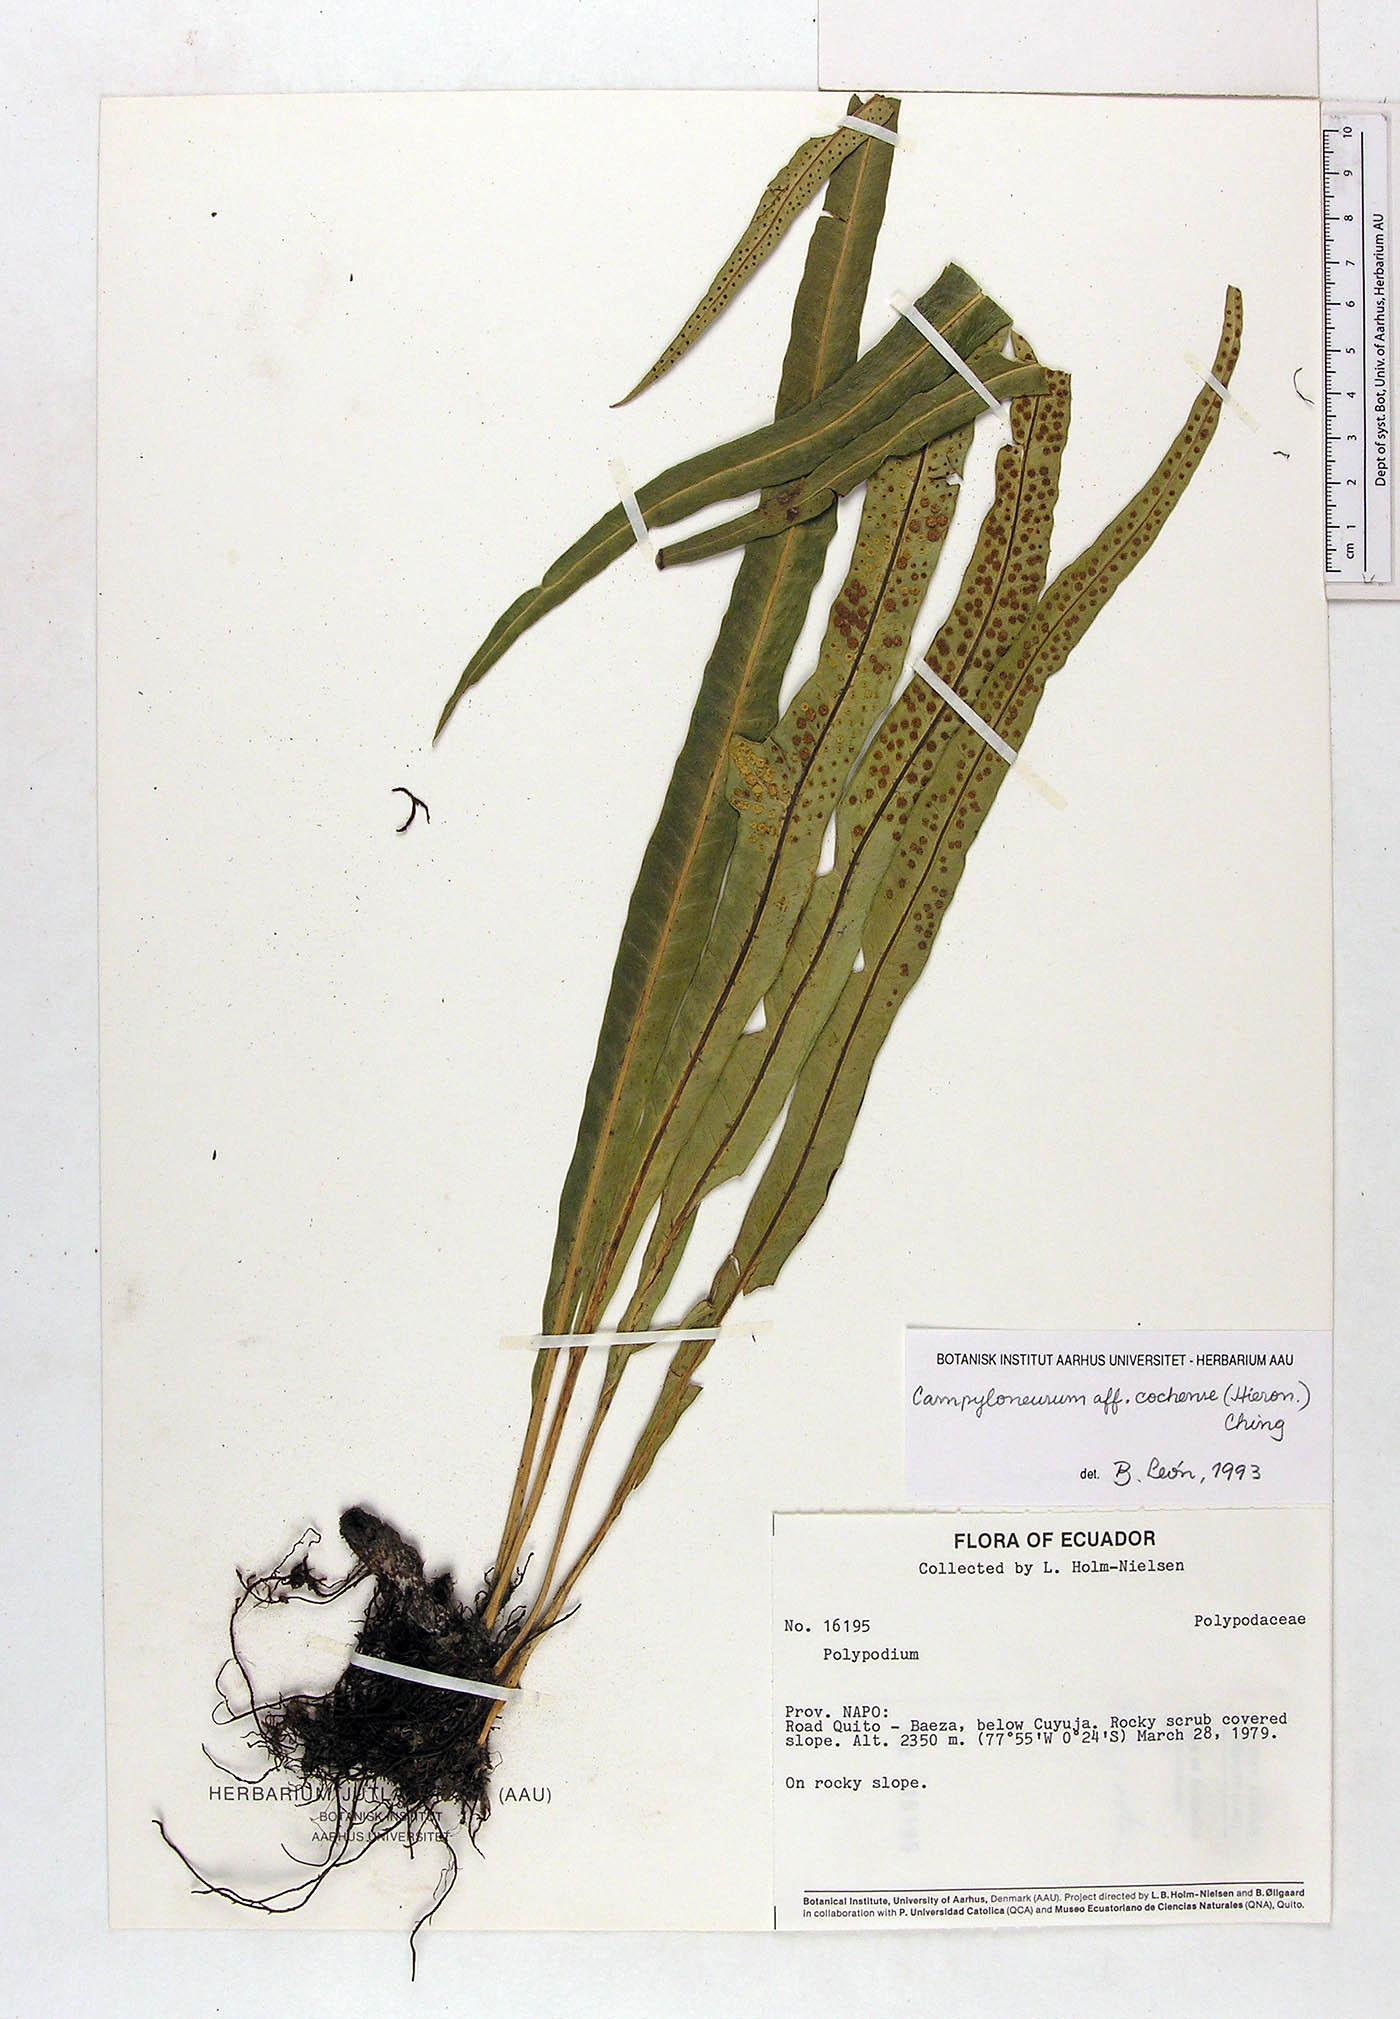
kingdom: Plantae
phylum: Tracheophyta
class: Polypodiopsida
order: Polypodiales
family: Polypodiaceae
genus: Campyloneurum
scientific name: Campyloneurum cochense
